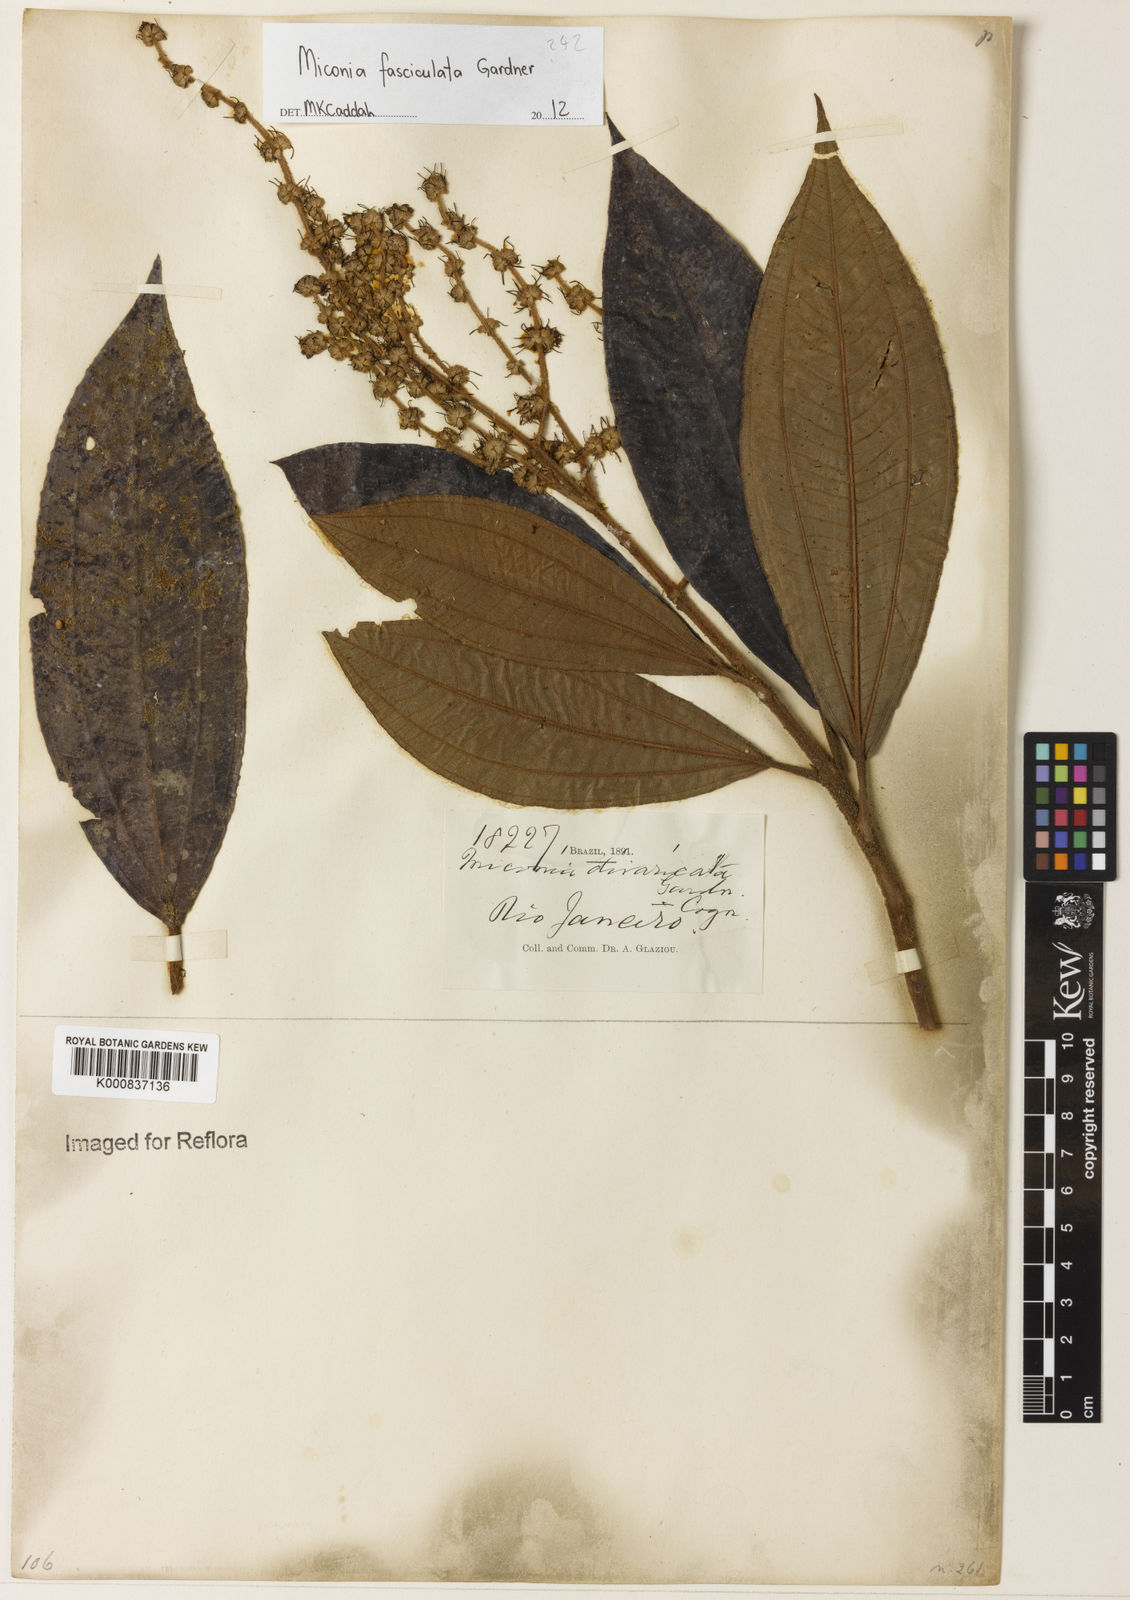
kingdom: Plantae
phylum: Tracheophyta
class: Magnoliopsida
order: Myrtales
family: Melastomataceae
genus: Miconia
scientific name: Miconia fasciculata
